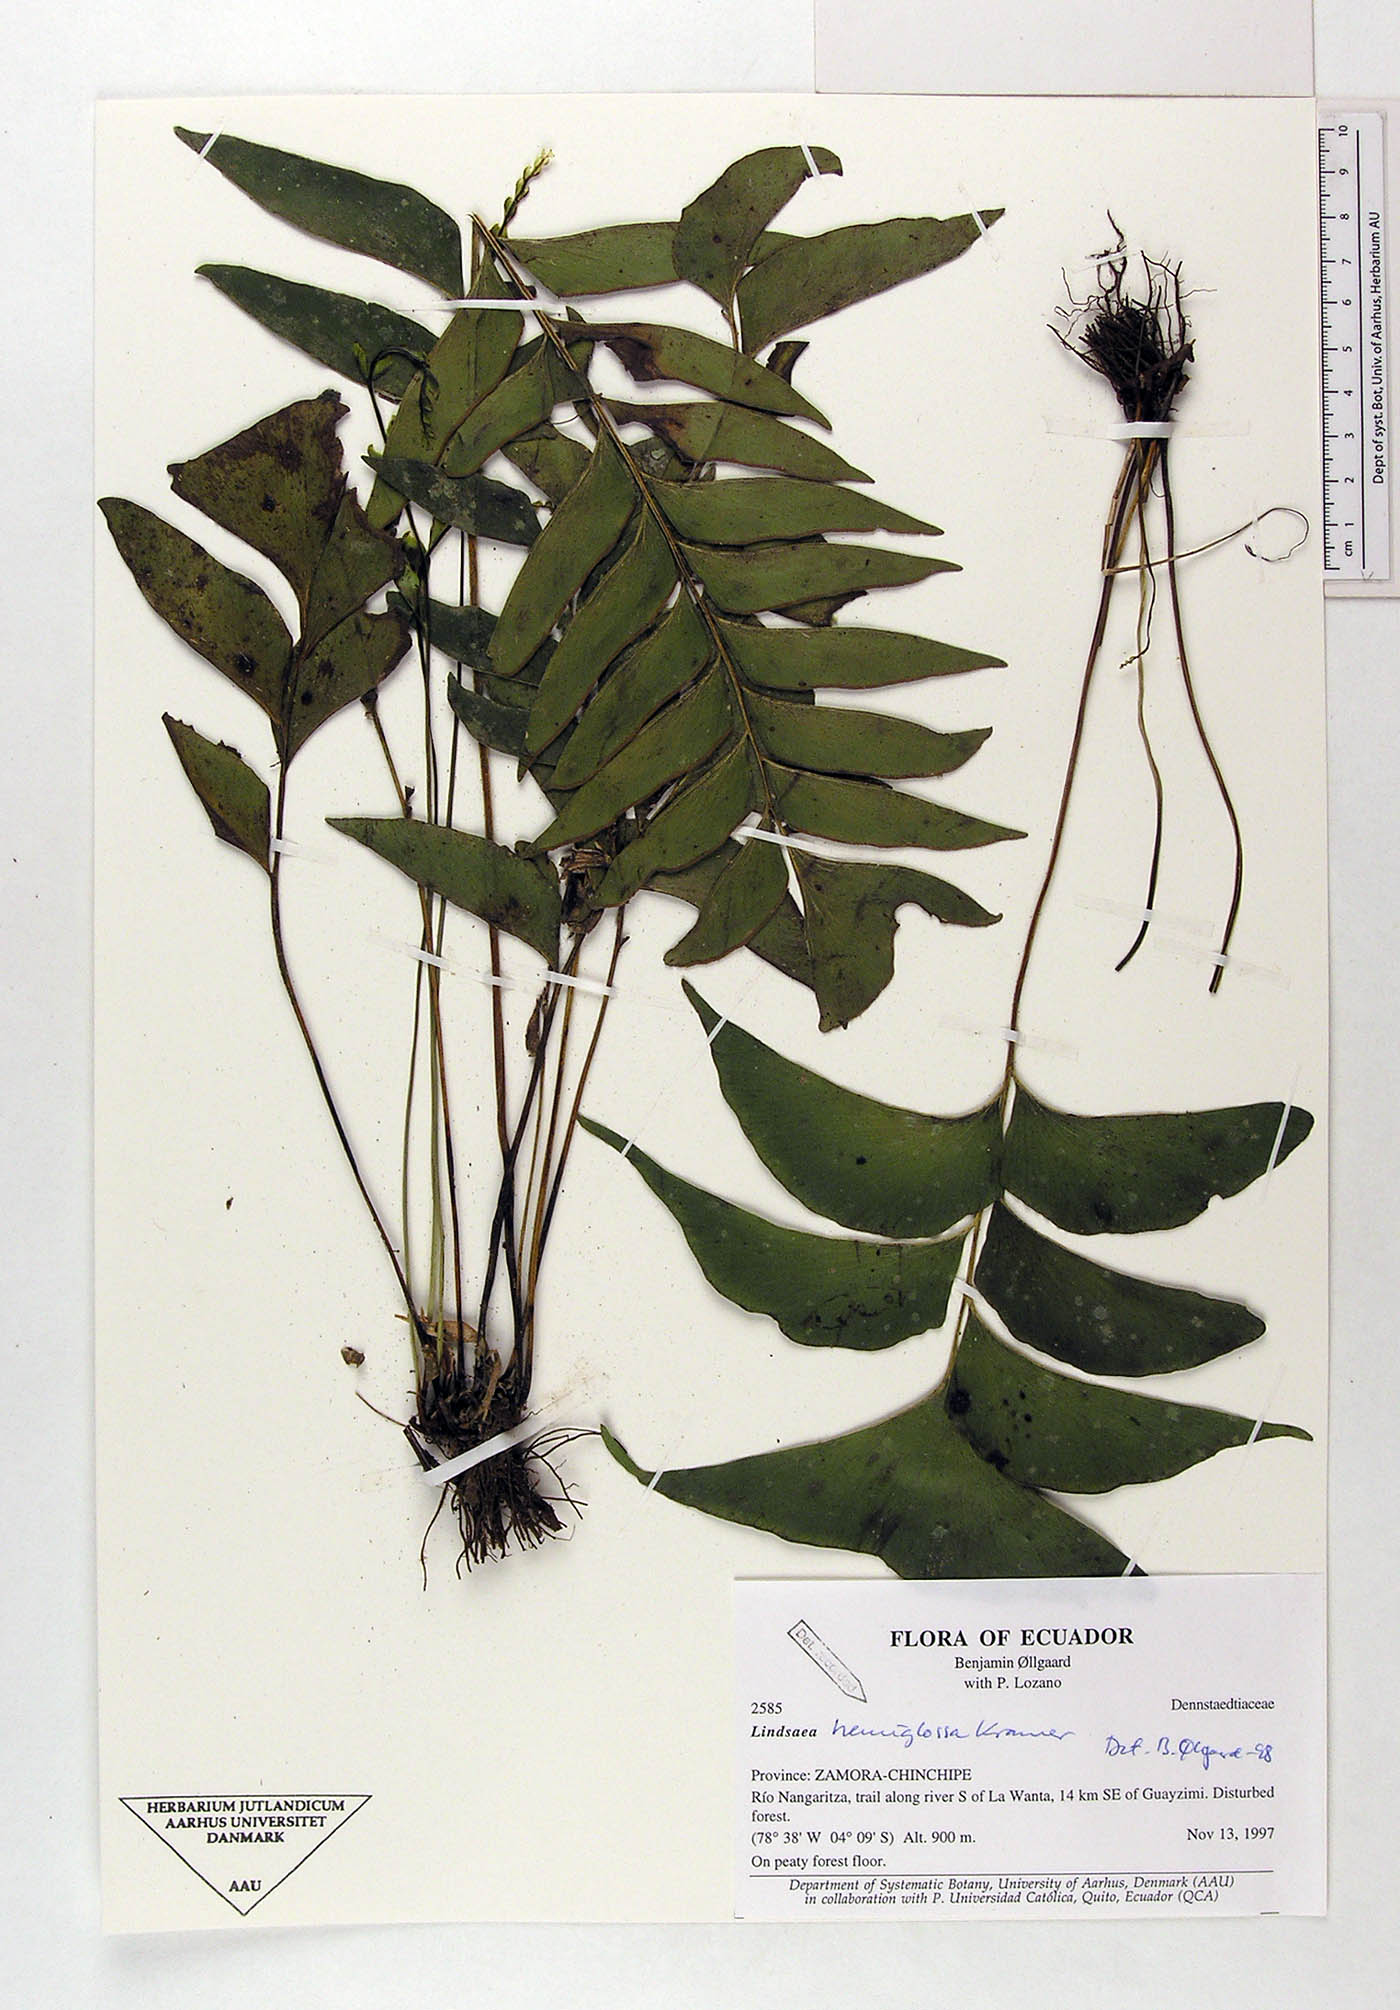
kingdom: Plantae
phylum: Tracheophyta
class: Polypodiopsida
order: Polypodiales
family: Lindsaeaceae
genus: Lindsaea
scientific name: Lindsaea hemiglossa
